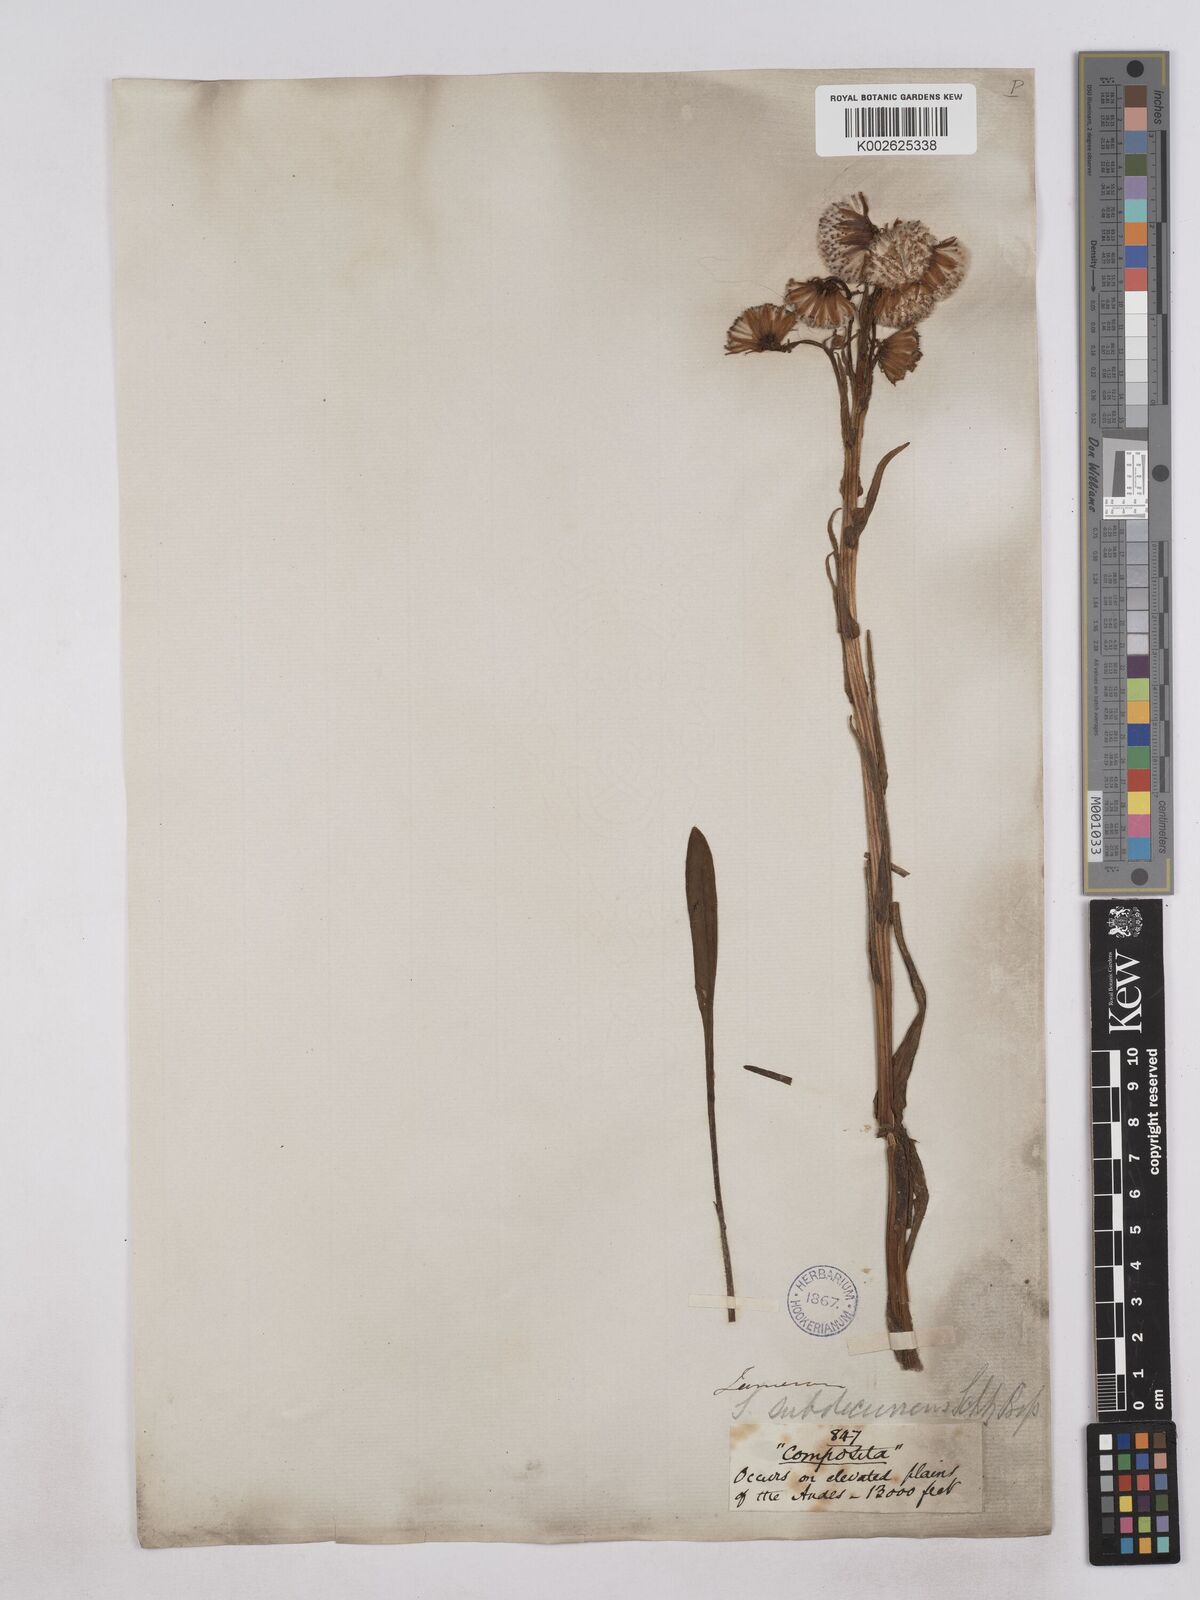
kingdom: Plantae
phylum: Tracheophyta
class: Magnoliopsida
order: Asterales
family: Asteraceae
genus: Senecio
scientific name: Senecio tephrosioides
